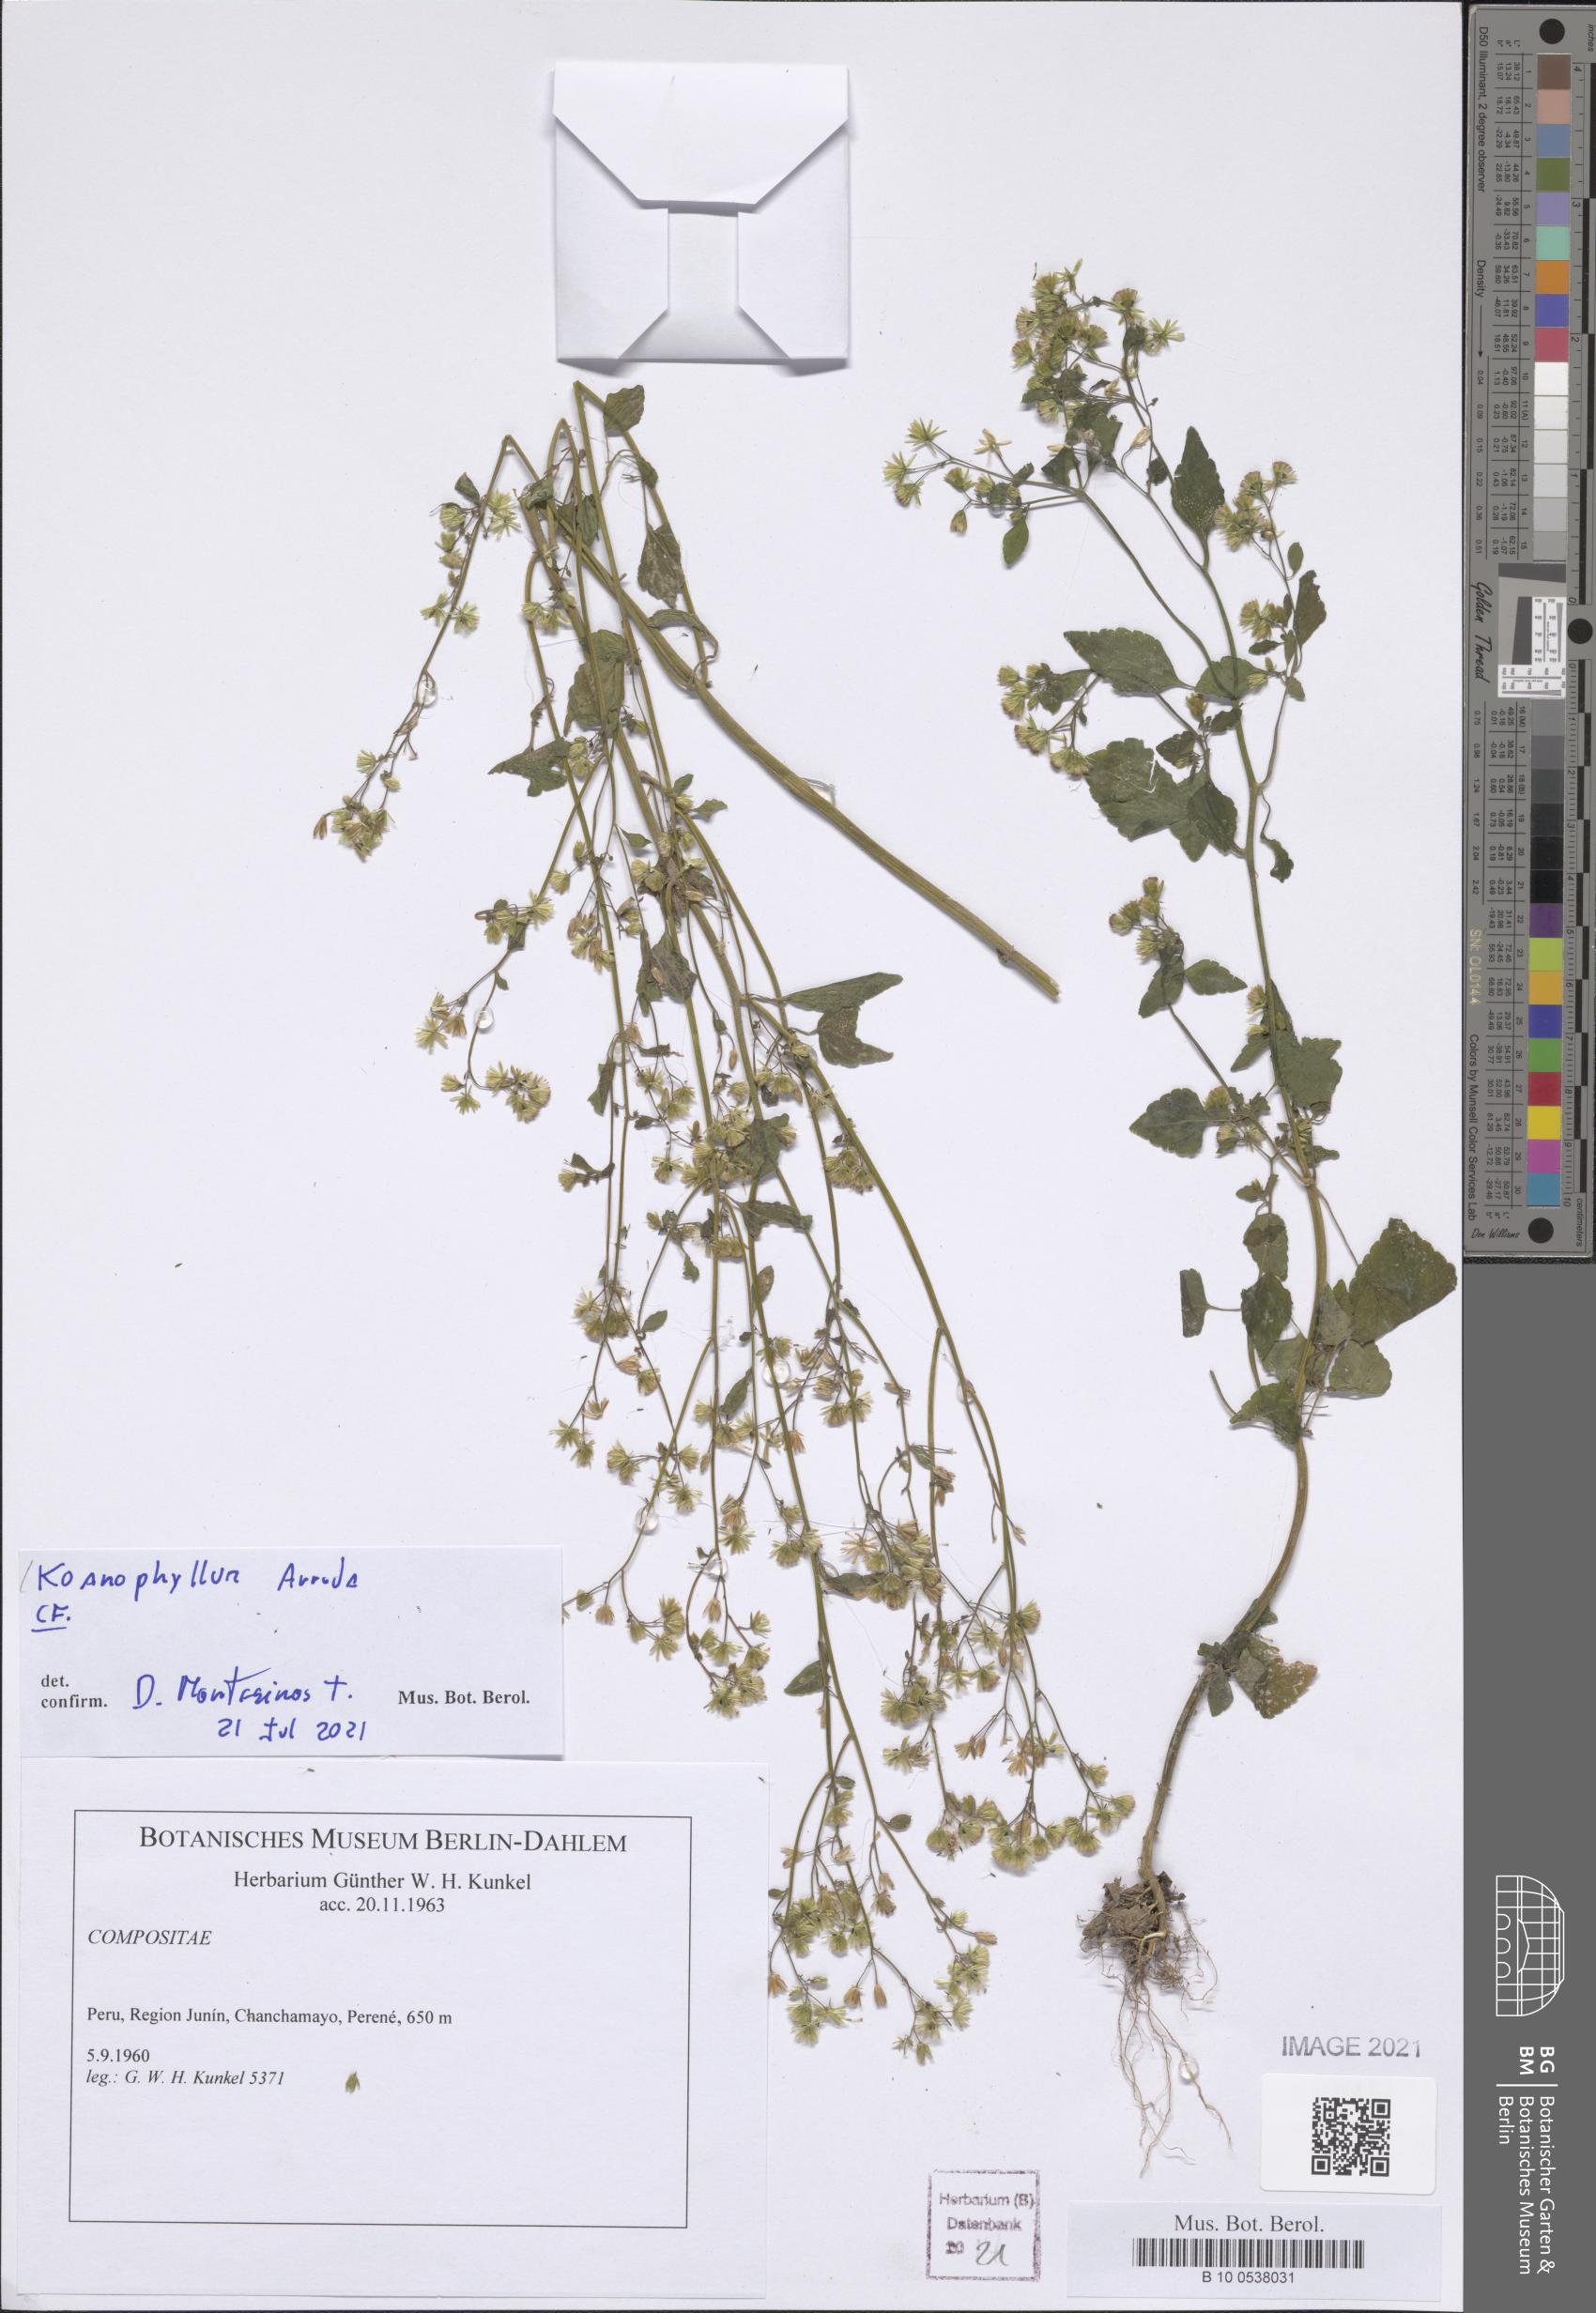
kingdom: Plantae
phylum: Tracheophyta
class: Magnoliopsida
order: Asterales
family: Asteraceae
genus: Koanophyllon
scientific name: Koanophyllon
